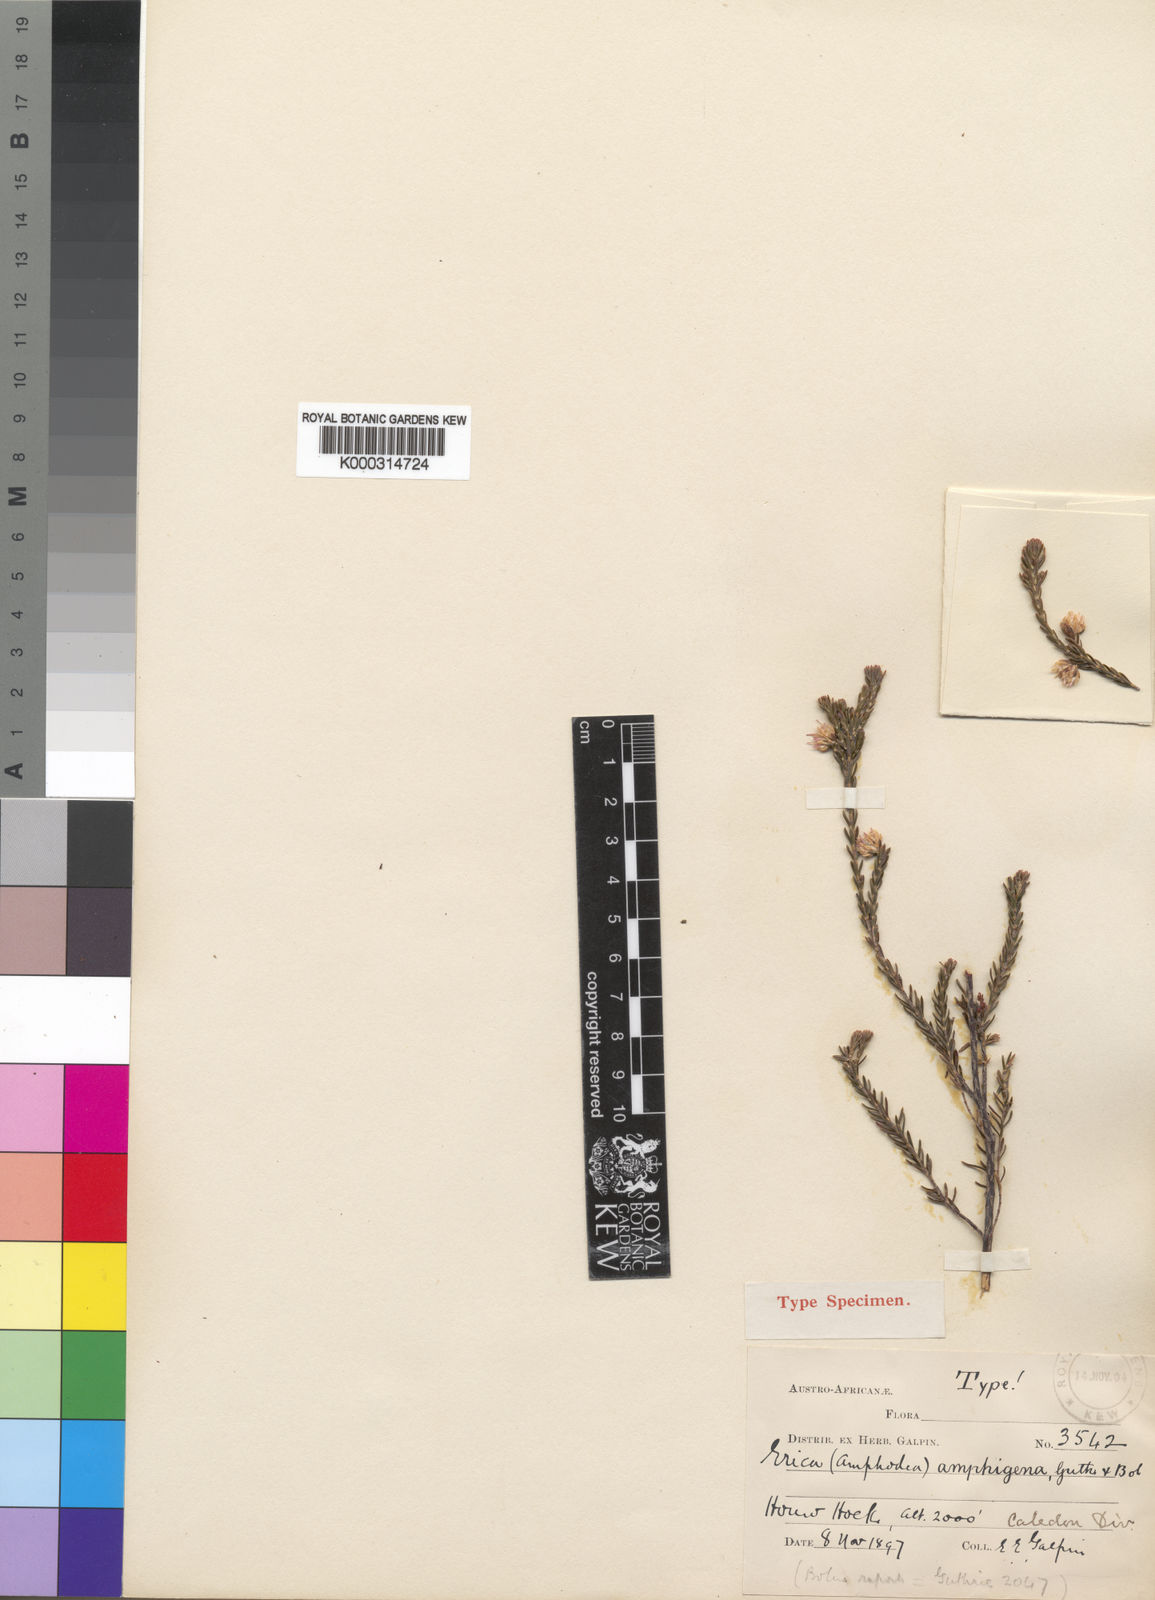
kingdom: Plantae
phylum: Tracheophyta
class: Magnoliopsida
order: Ericales
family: Ericaceae
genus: Erica
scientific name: Erica amphigena
